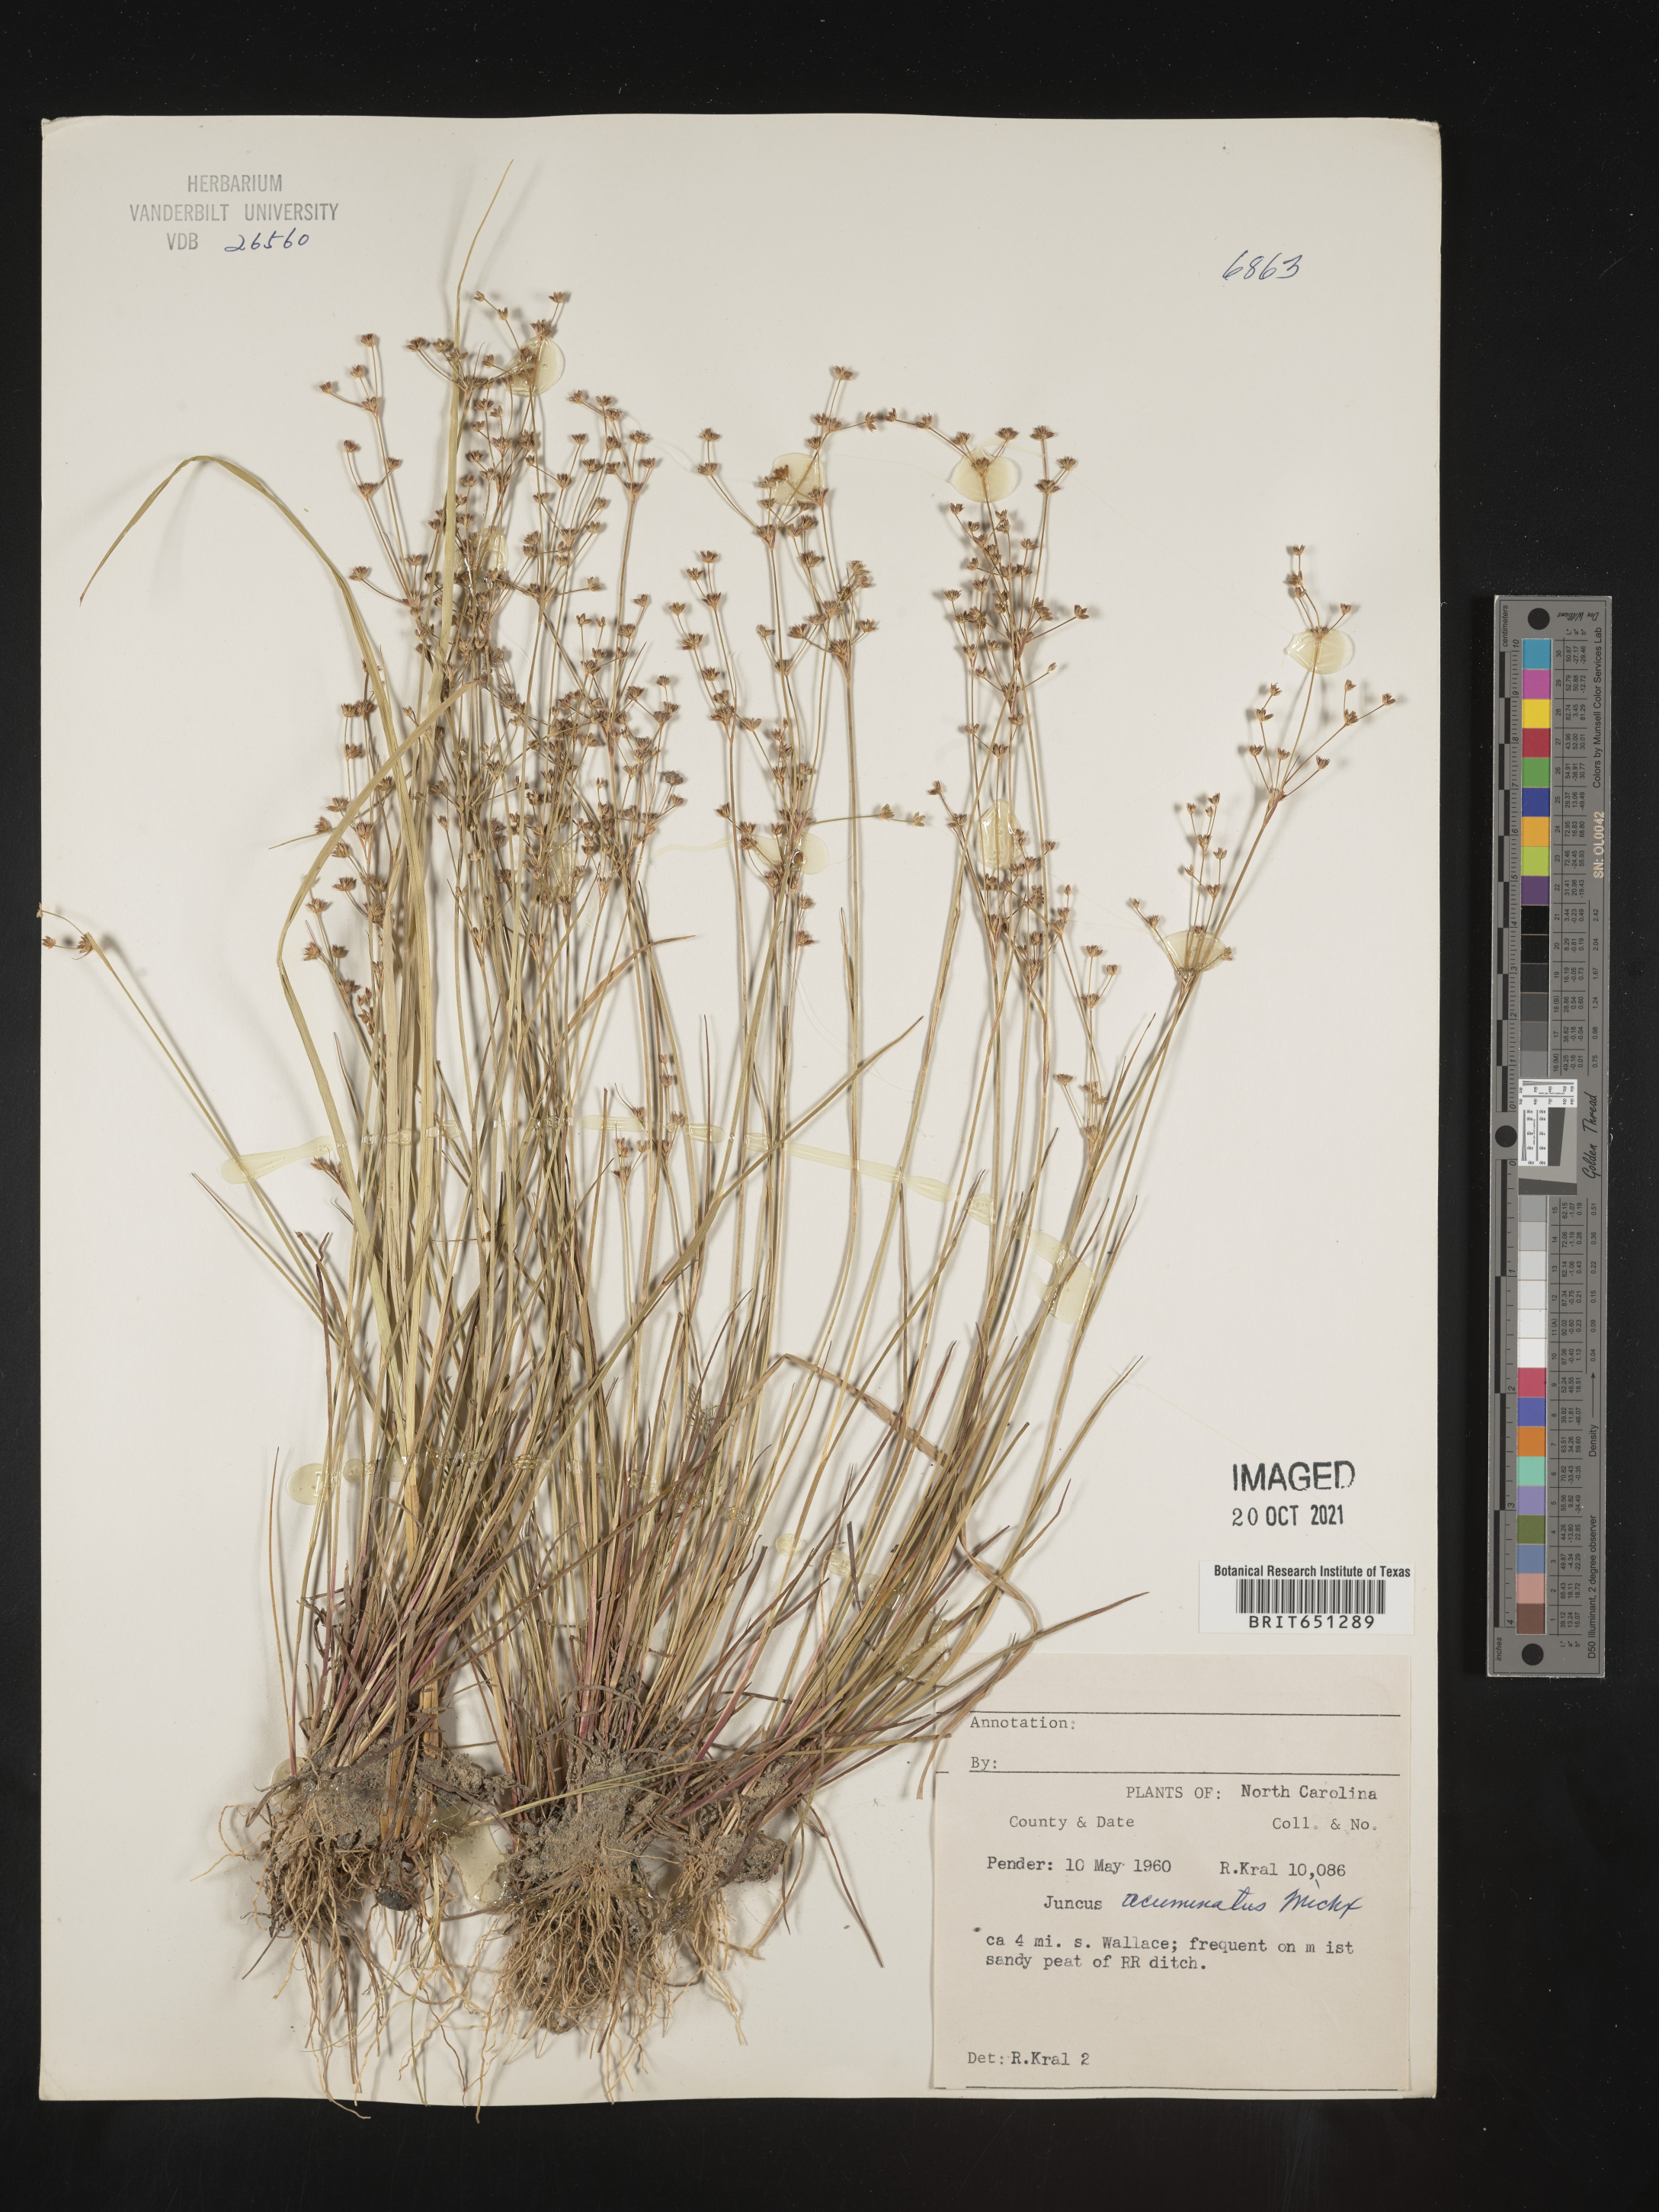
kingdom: Plantae
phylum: Tracheophyta
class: Liliopsida
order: Poales
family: Juncaceae
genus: Juncus
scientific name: Juncus acuminatus
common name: Knotty-leaved rush
